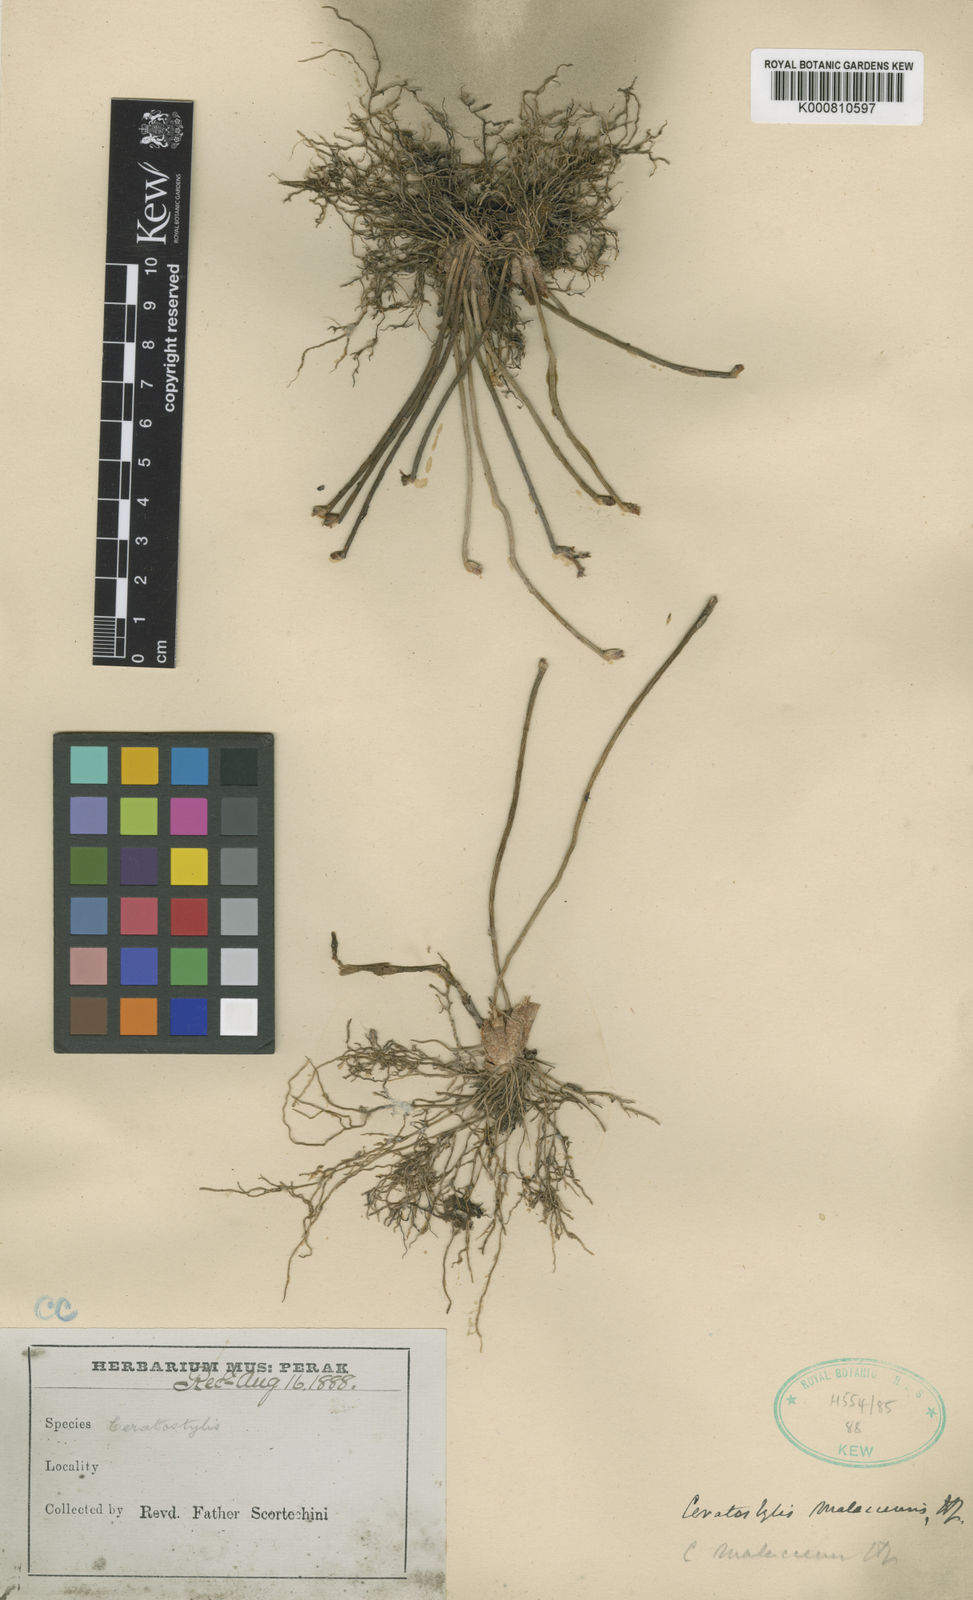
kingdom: Plantae
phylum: Tracheophyta
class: Liliopsida
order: Asparagales
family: Orchidaceae
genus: Ceratostylis
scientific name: Ceratostylis subulata
